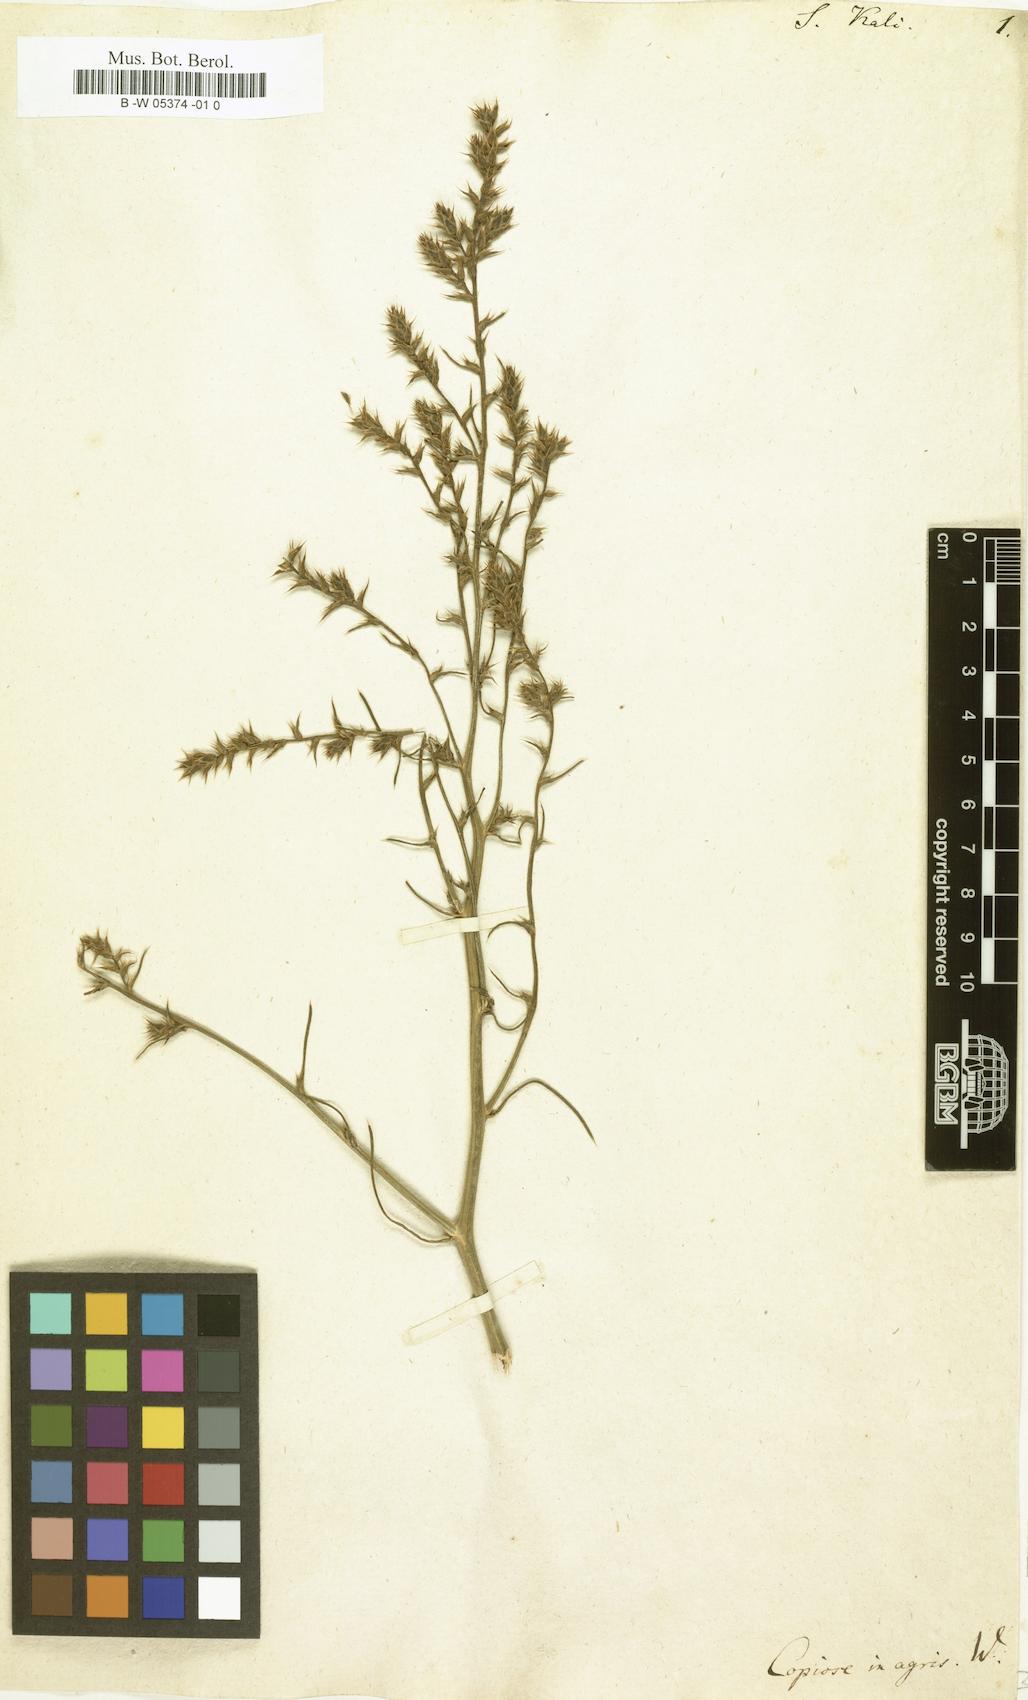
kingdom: Plantae
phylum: Tracheophyta
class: Magnoliopsida
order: Caryophyllales
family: Amaranthaceae
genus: Salsola
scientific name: Salsola kali
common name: Saltwort
